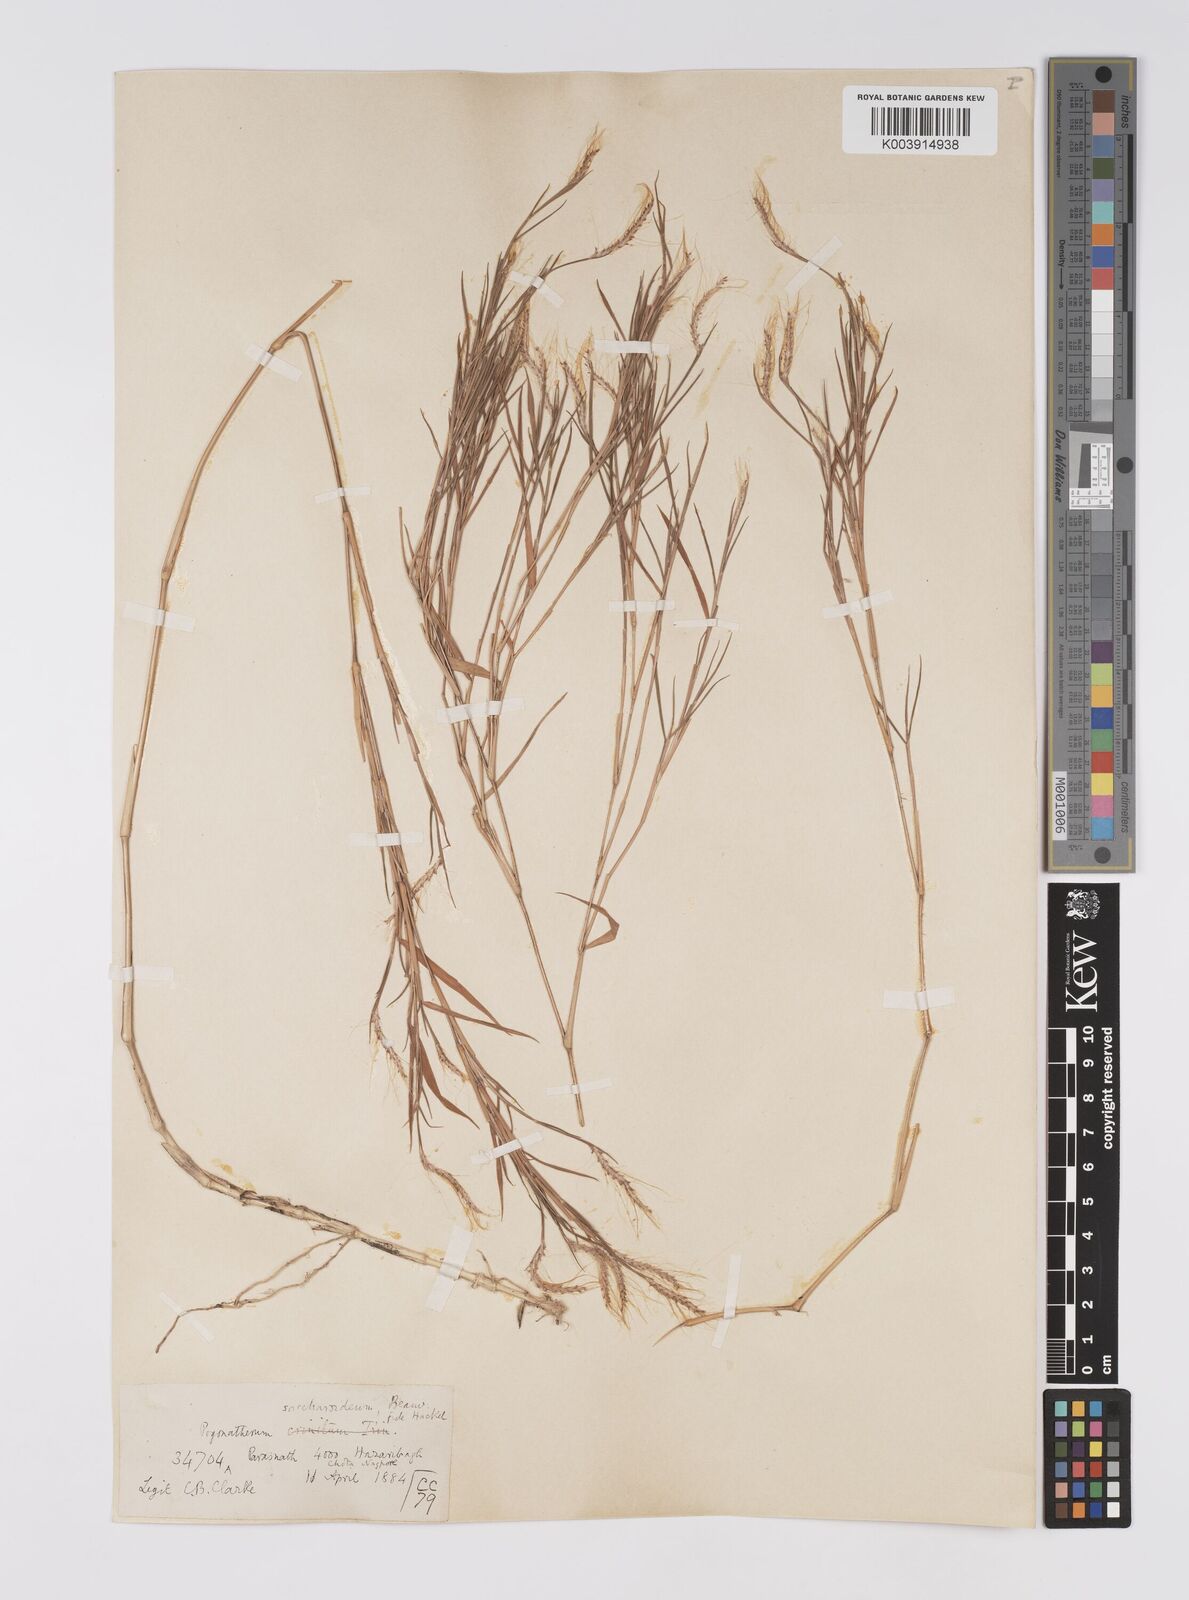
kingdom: Plantae
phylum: Tracheophyta
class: Liliopsida
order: Poales
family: Poaceae
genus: Pogonatherum
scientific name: Pogonatherum paniceum
